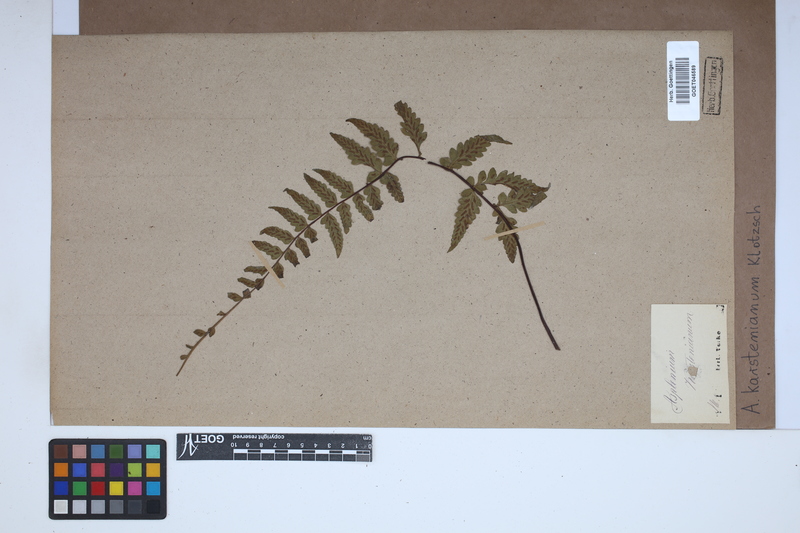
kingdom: Plantae
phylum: Tracheophyta
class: Polypodiopsida
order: Polypodiales
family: Aspleniaceae
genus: Asplenium
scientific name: Asplenium cirrhatum
